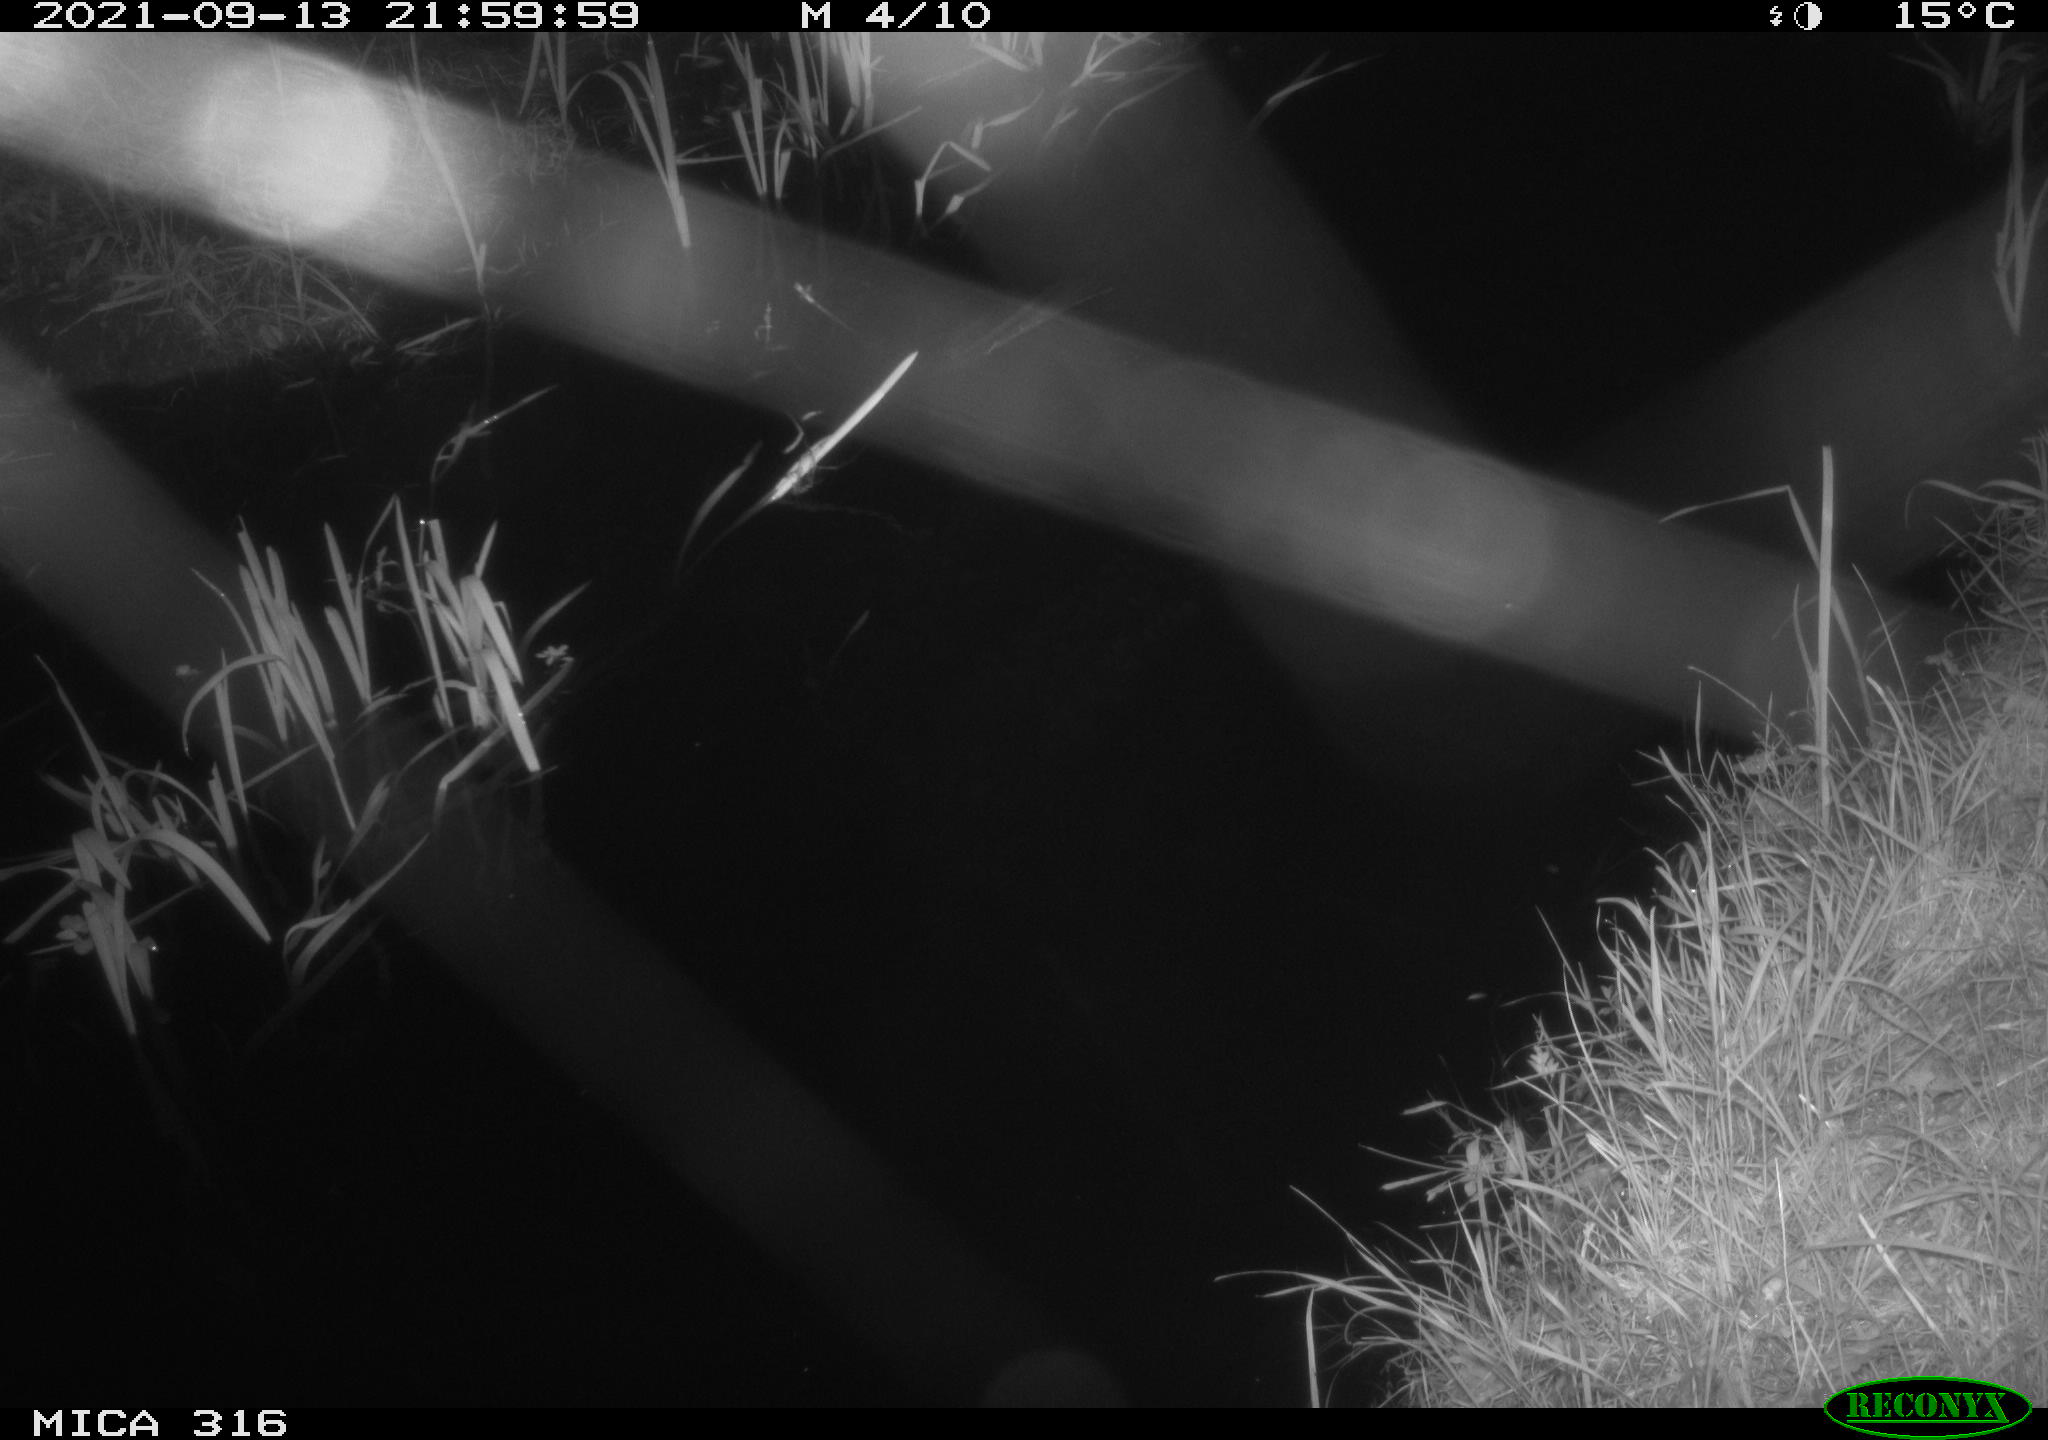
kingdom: Animalia
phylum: Chordata
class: Mammalia
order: Rodentia
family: Muridae
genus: Rattus
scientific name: Rattus norvegicus
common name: Brown rat
